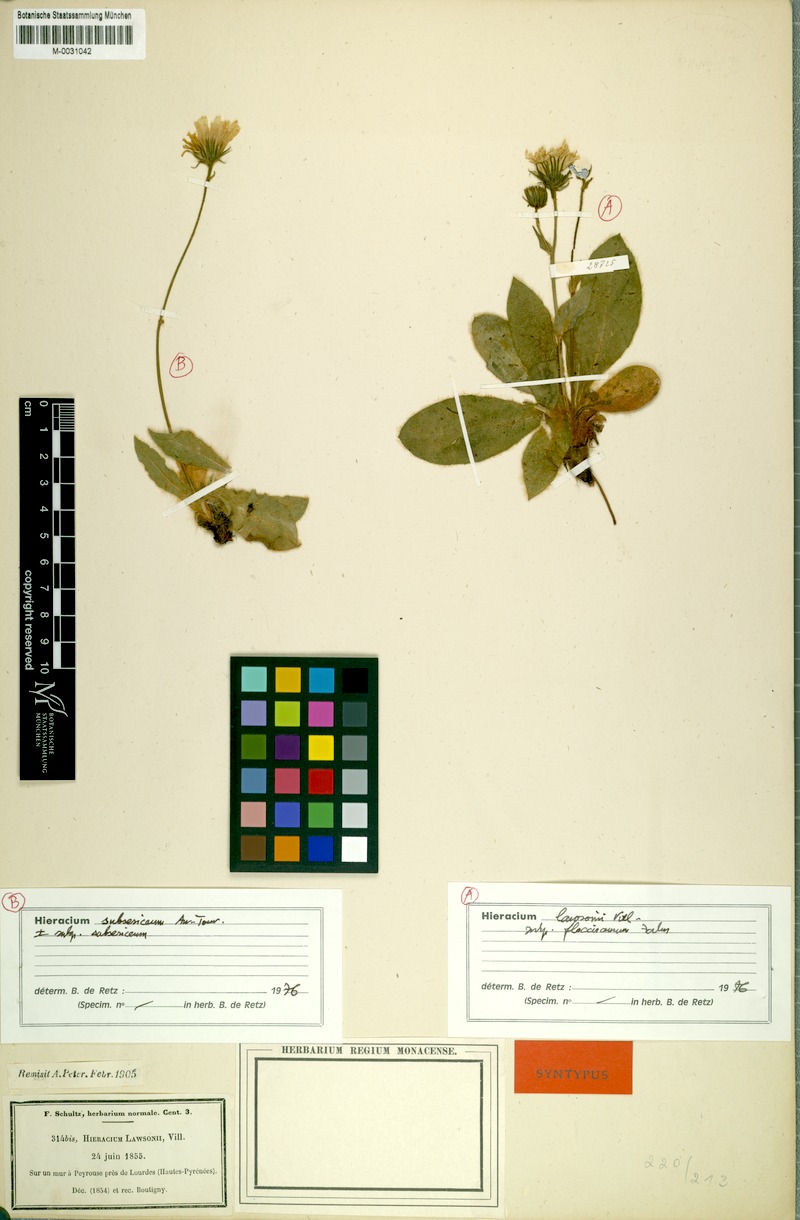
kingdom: Plantae
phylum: Tracheophyta
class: Magnoliopsida
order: Asterales
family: Asteraceae
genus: Hieracium
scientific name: Hieracium lawsonii
